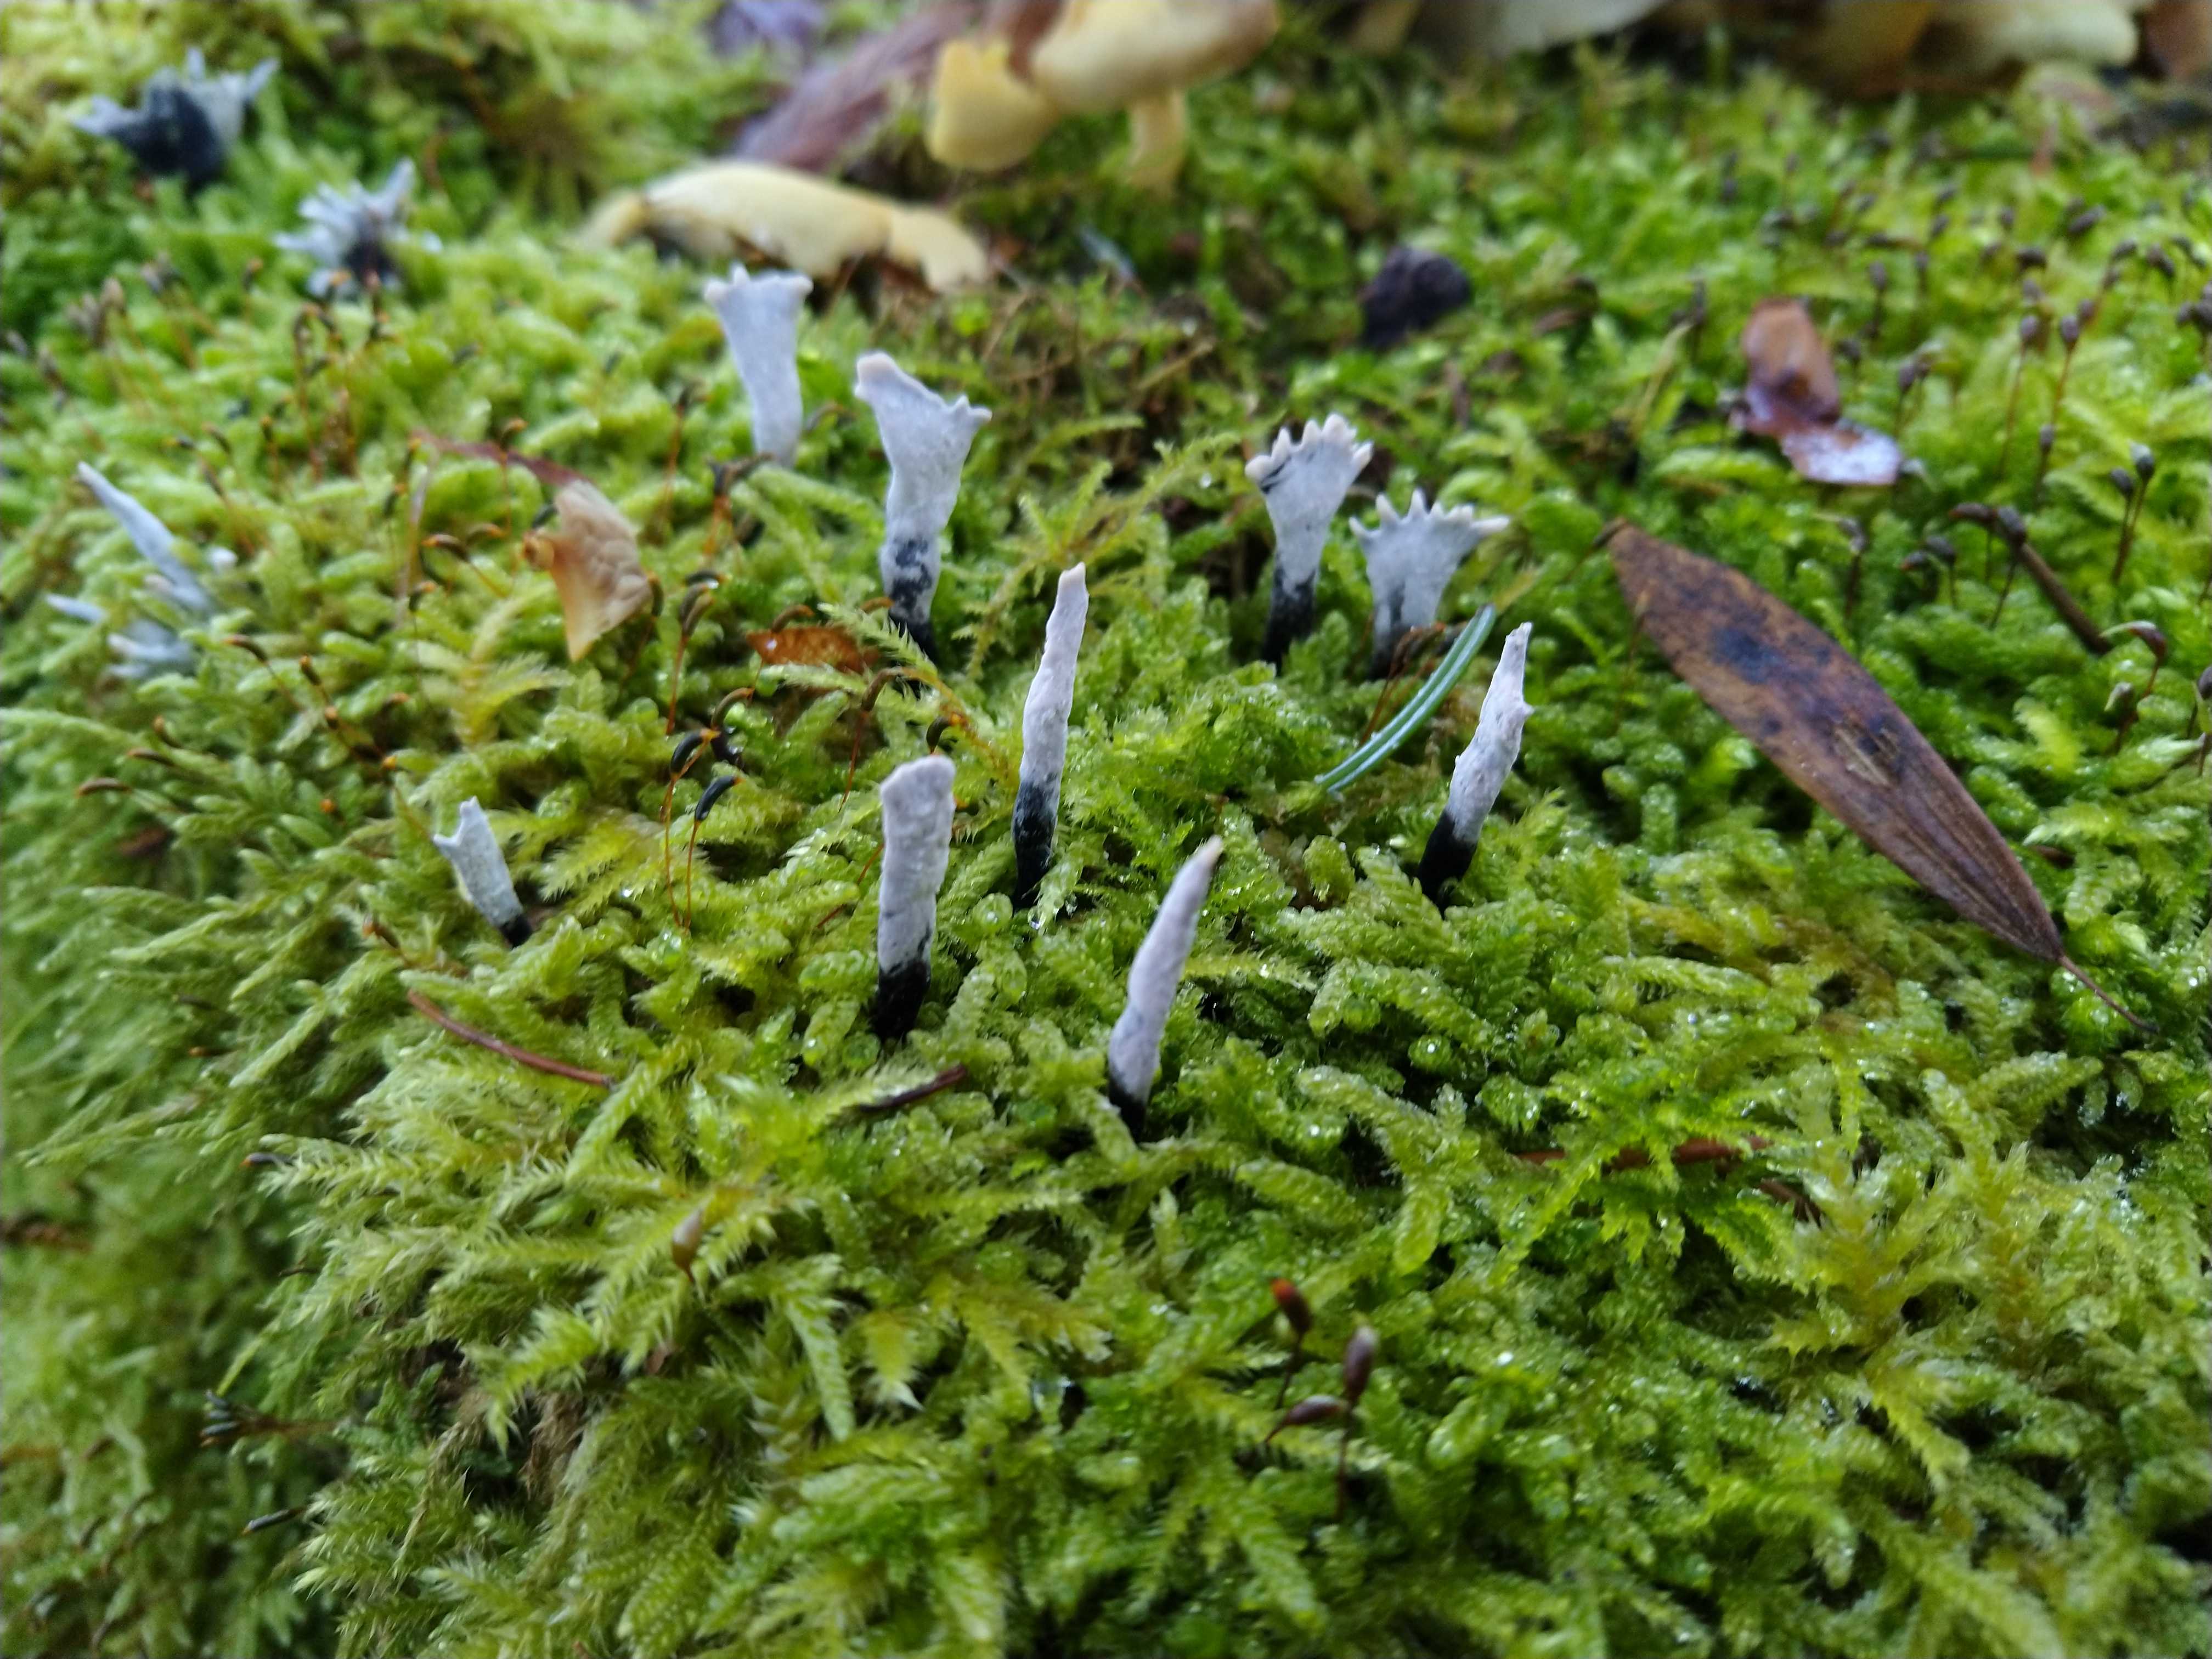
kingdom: Fungi
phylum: Ascomycota
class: Sordariomycetes
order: Xylariales
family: Xylariaceae
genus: Xylaria
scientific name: Xylaria hypoxylon
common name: grenet stødsvamp
